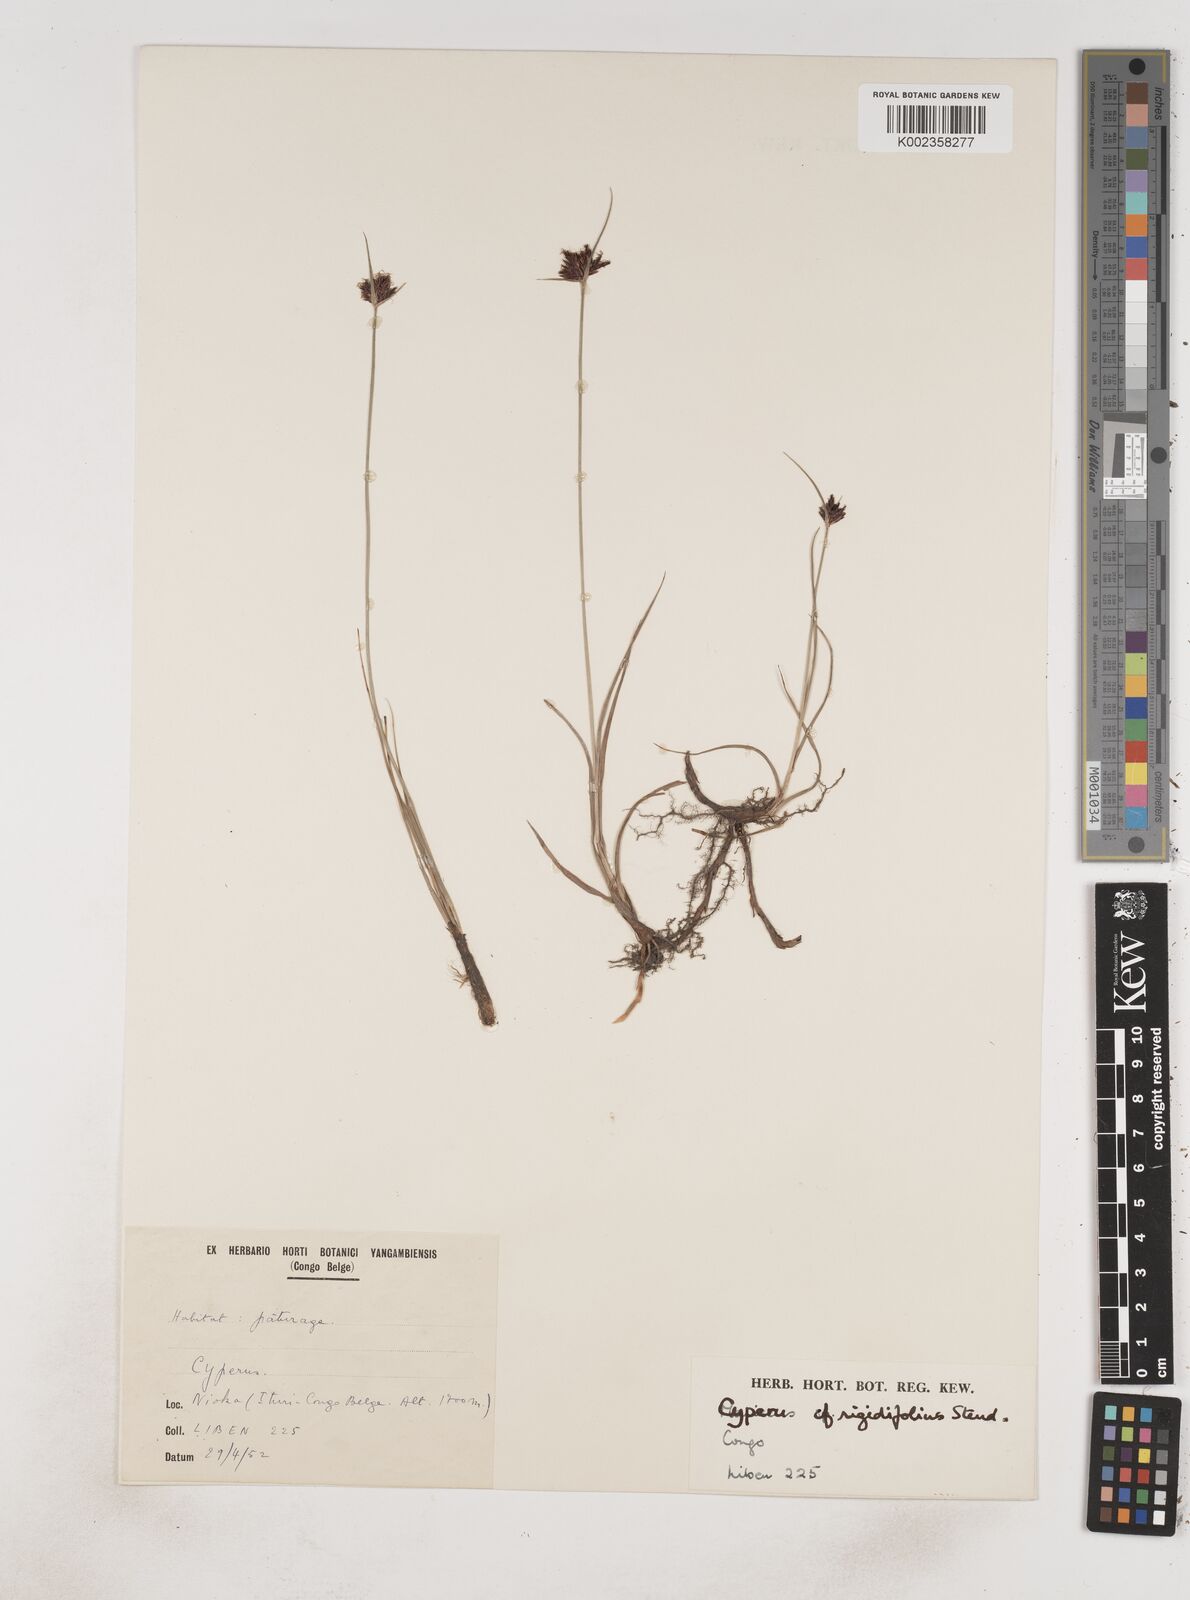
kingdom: Plantae
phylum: Tracheophyta
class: Liliopsida
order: Poales
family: Cyperaceae
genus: Cyperus
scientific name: Cyperus rigidifolius
